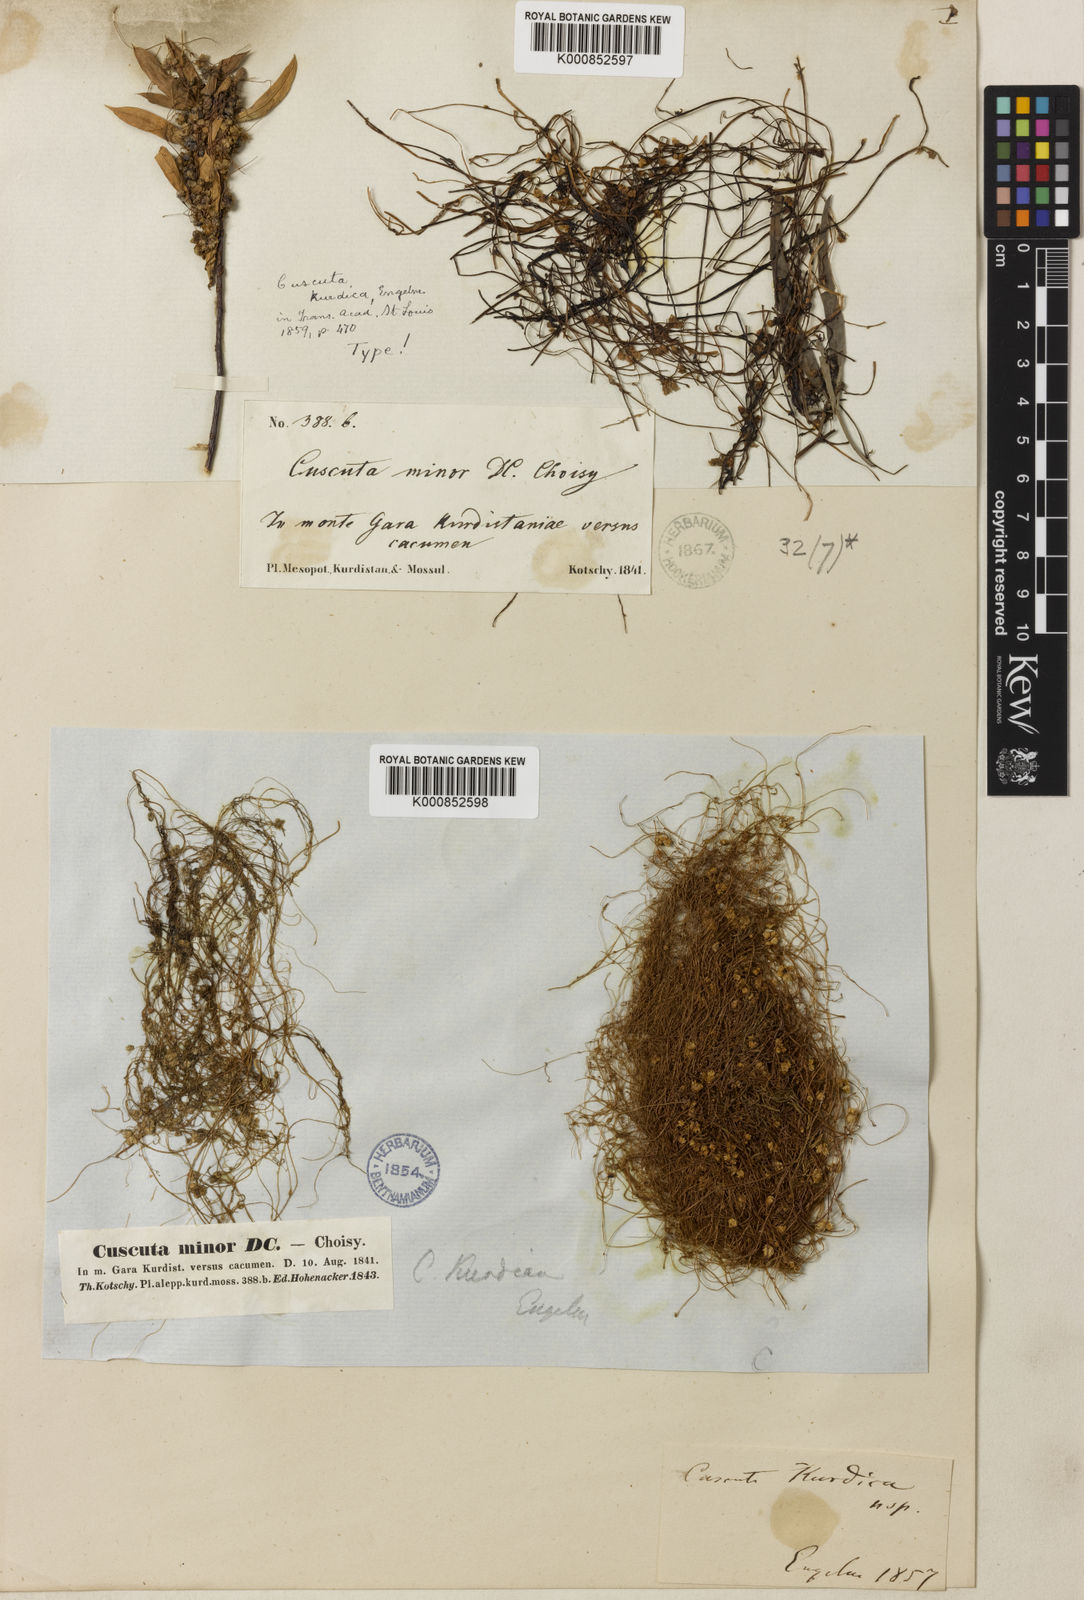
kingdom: Plantae
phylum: Tracheophyta
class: Magnoliopsida
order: Solanales
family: Convolvulaceae
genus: Cuscuta
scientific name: Cuscuta kurdica
